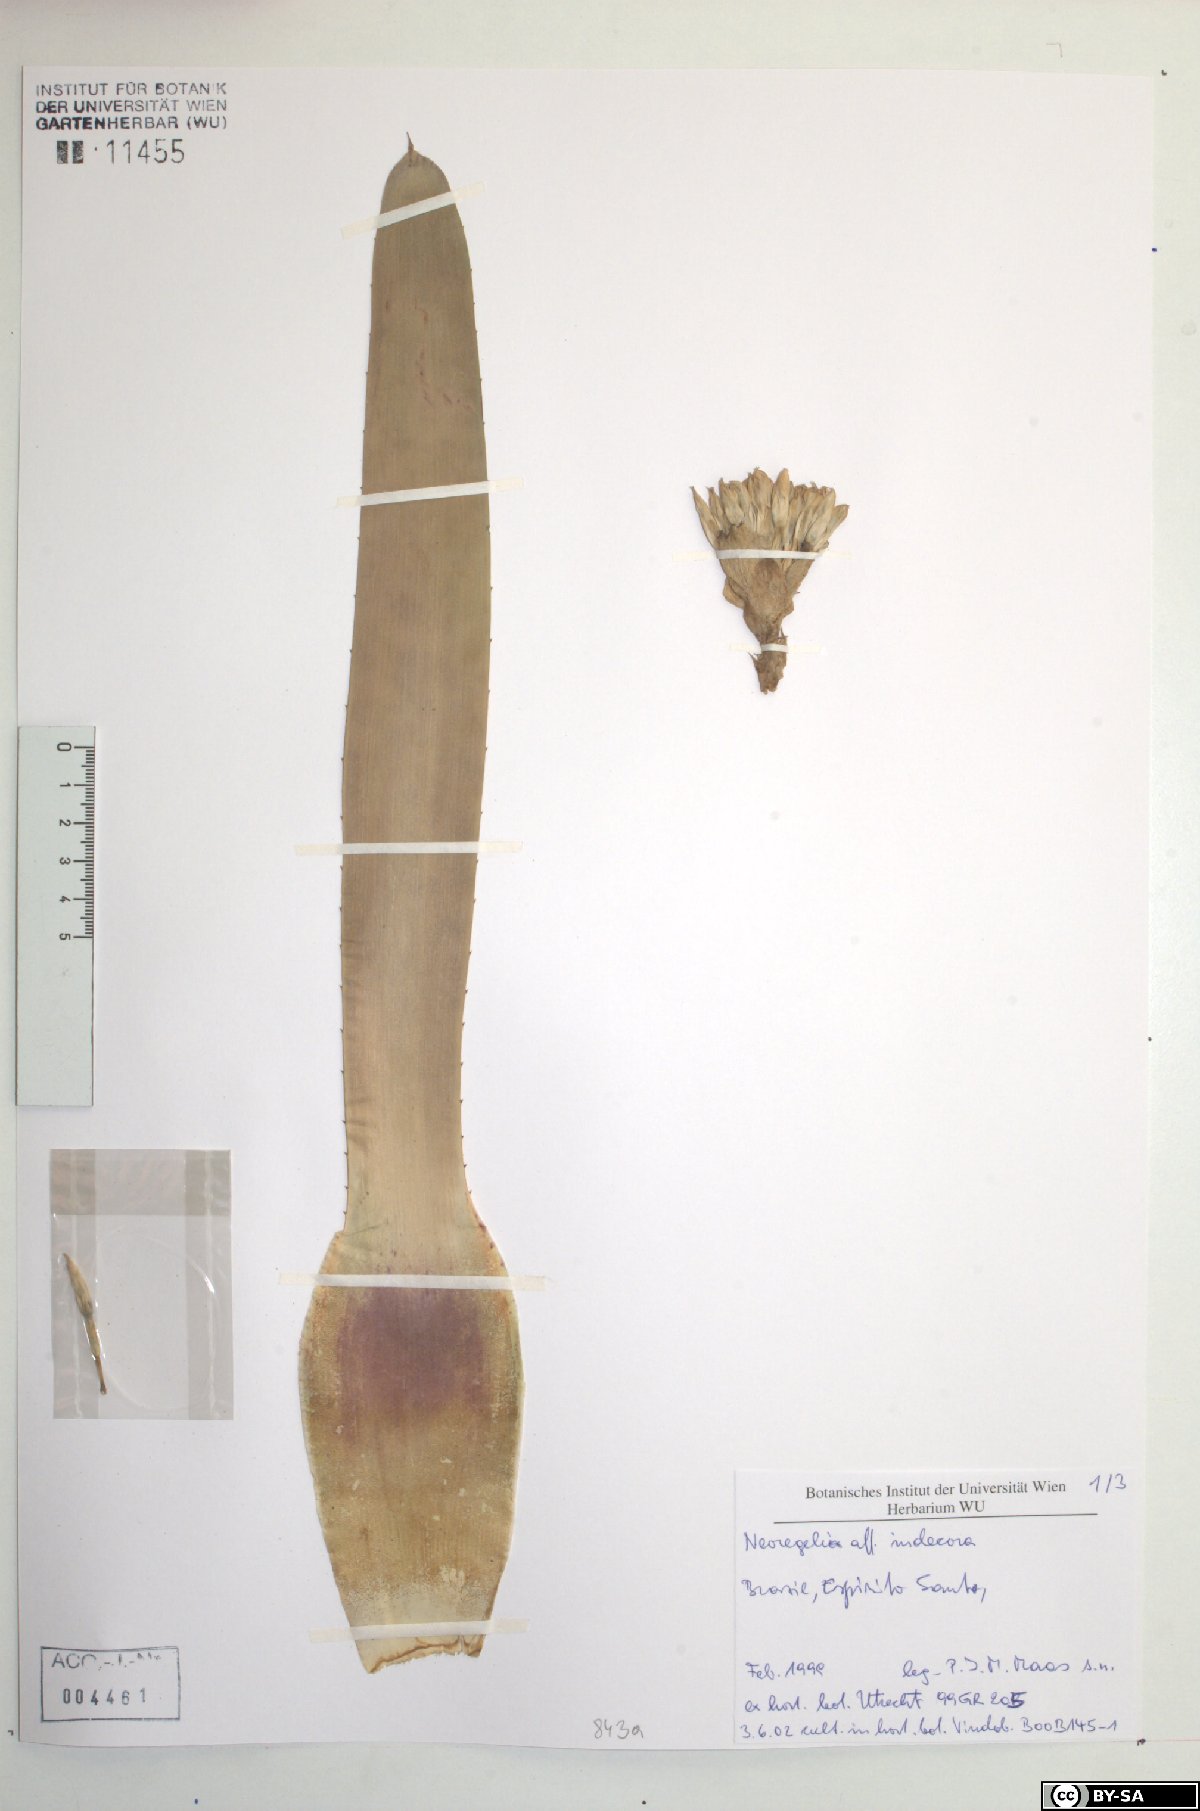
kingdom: Plantae
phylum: Tracheophyta
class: Liliopsida
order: Poales
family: Bromeliaceae
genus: Neoregelia
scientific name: Neoregelia indecora
